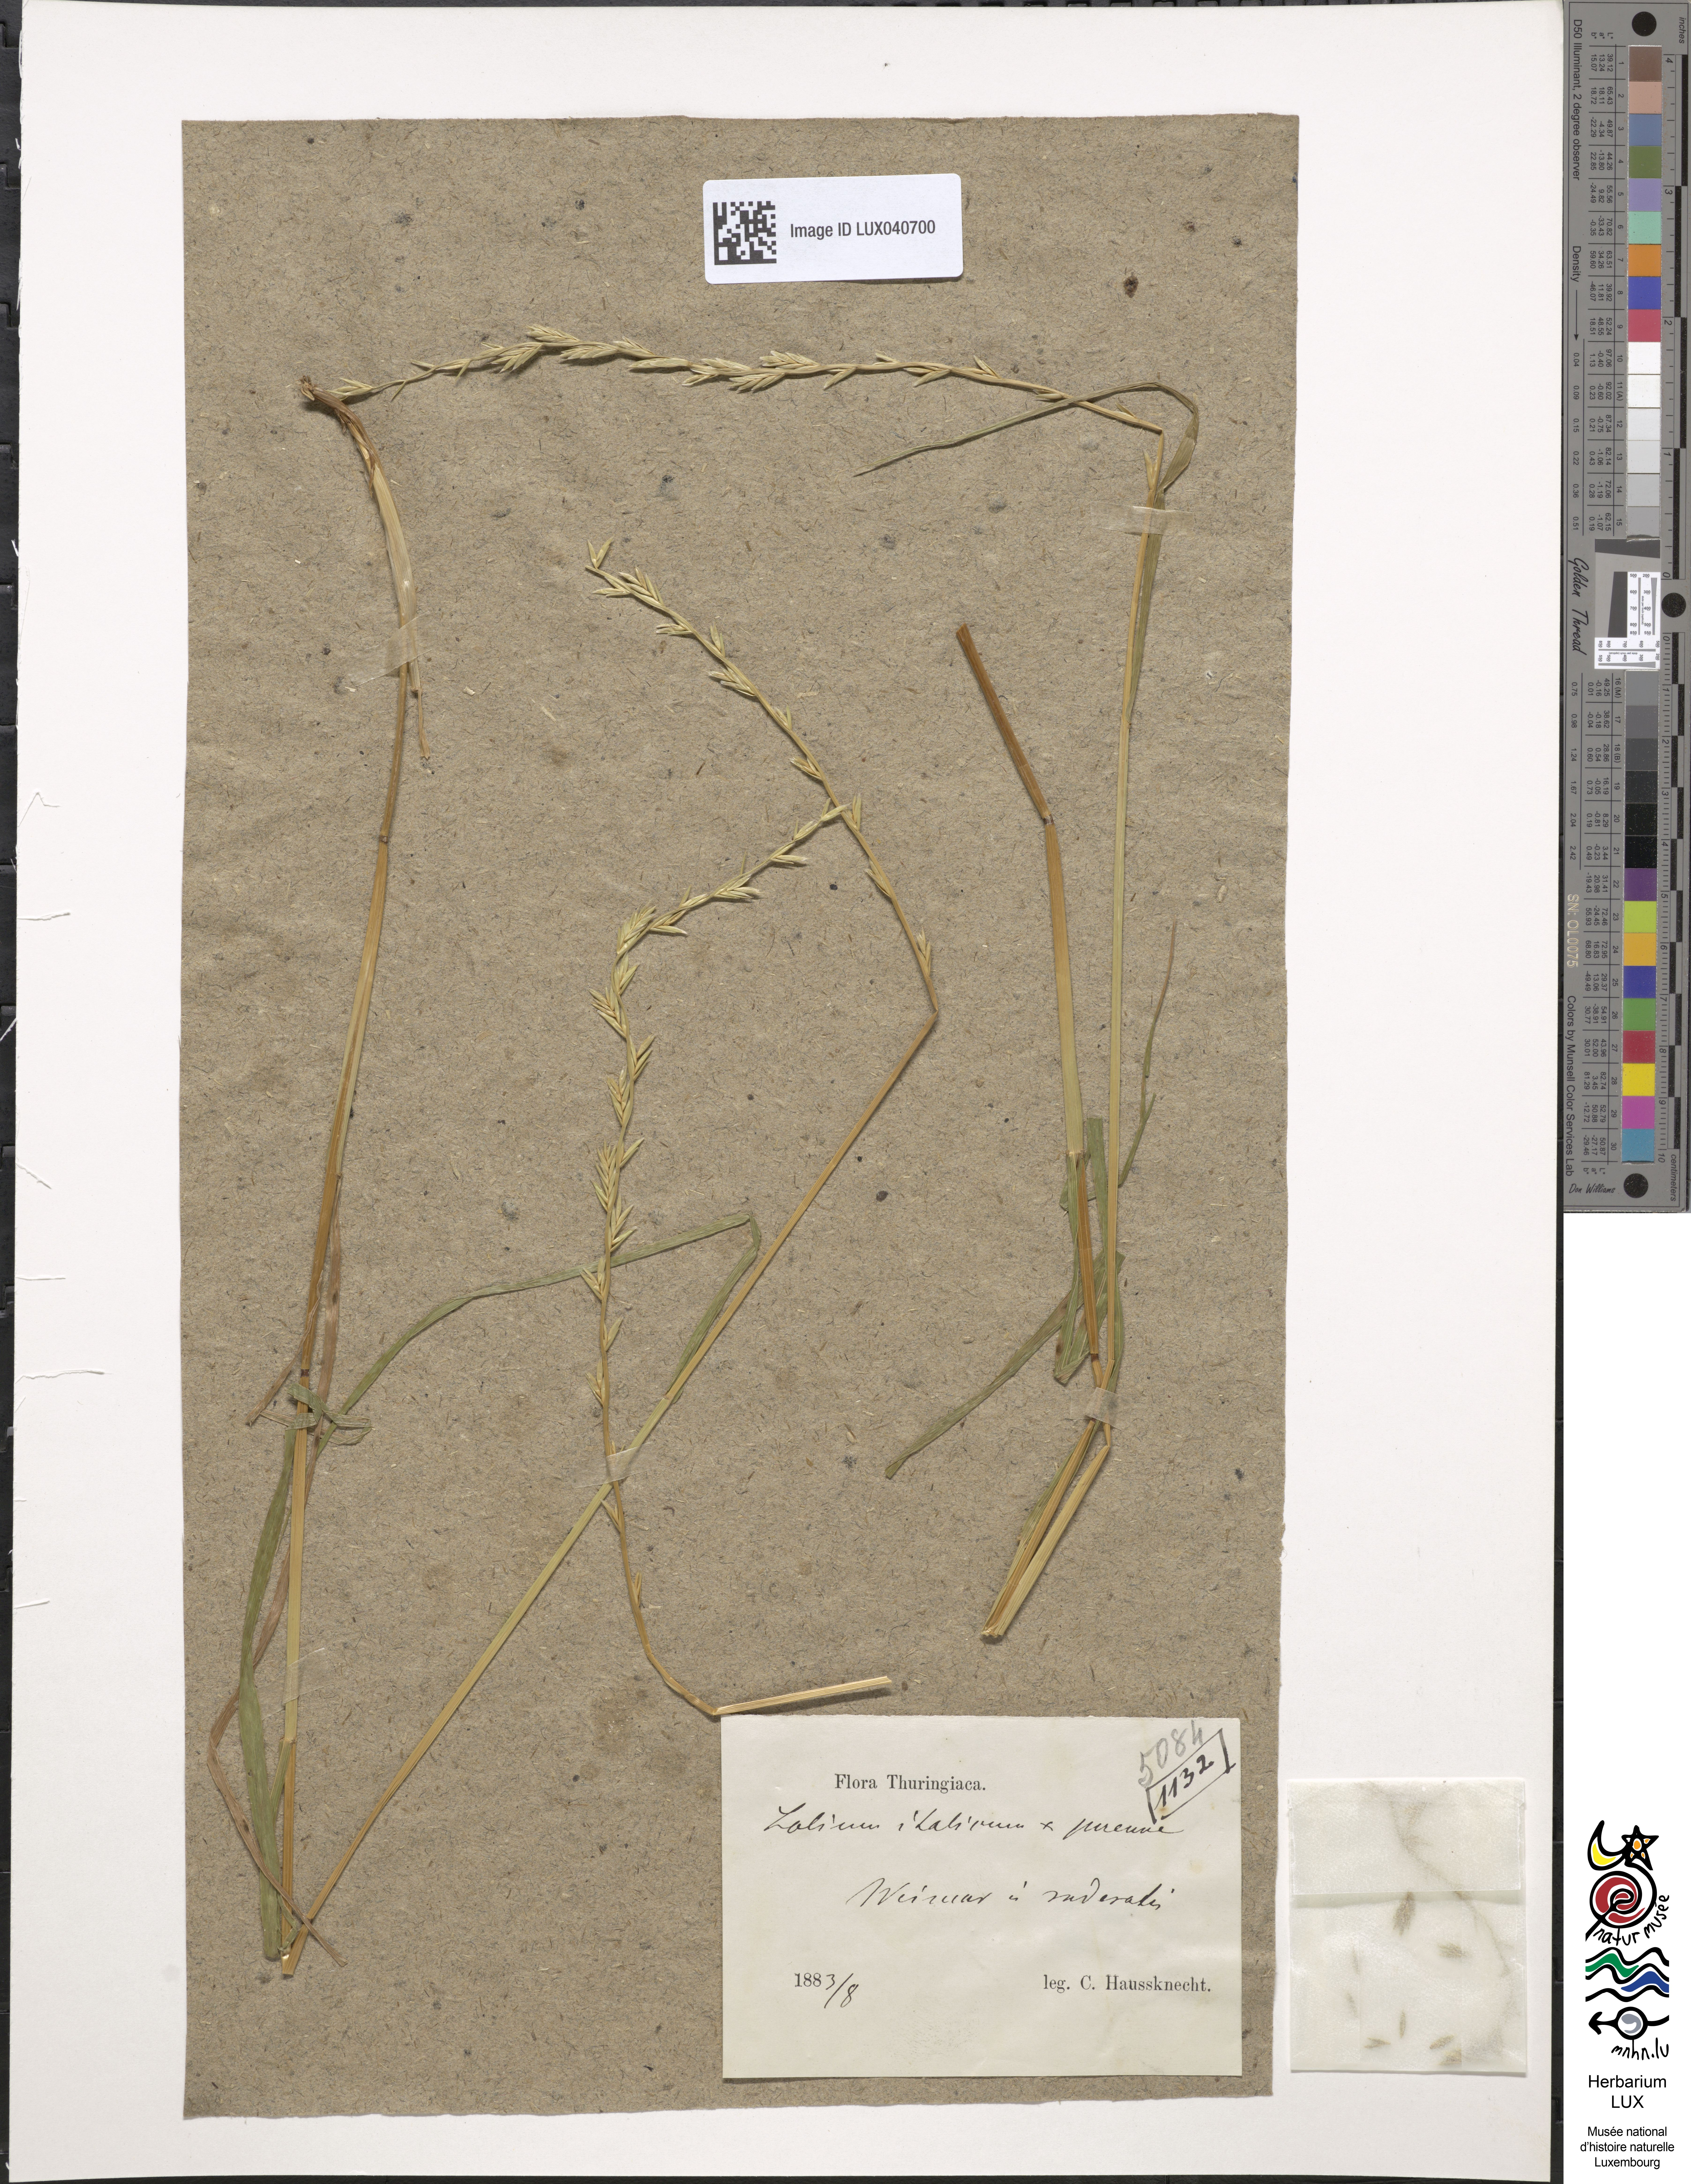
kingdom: Plantae
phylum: Tracheophyta
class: Liliopsida
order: Poales
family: Poaceae
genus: Lolium
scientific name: Lolium boucheanum
